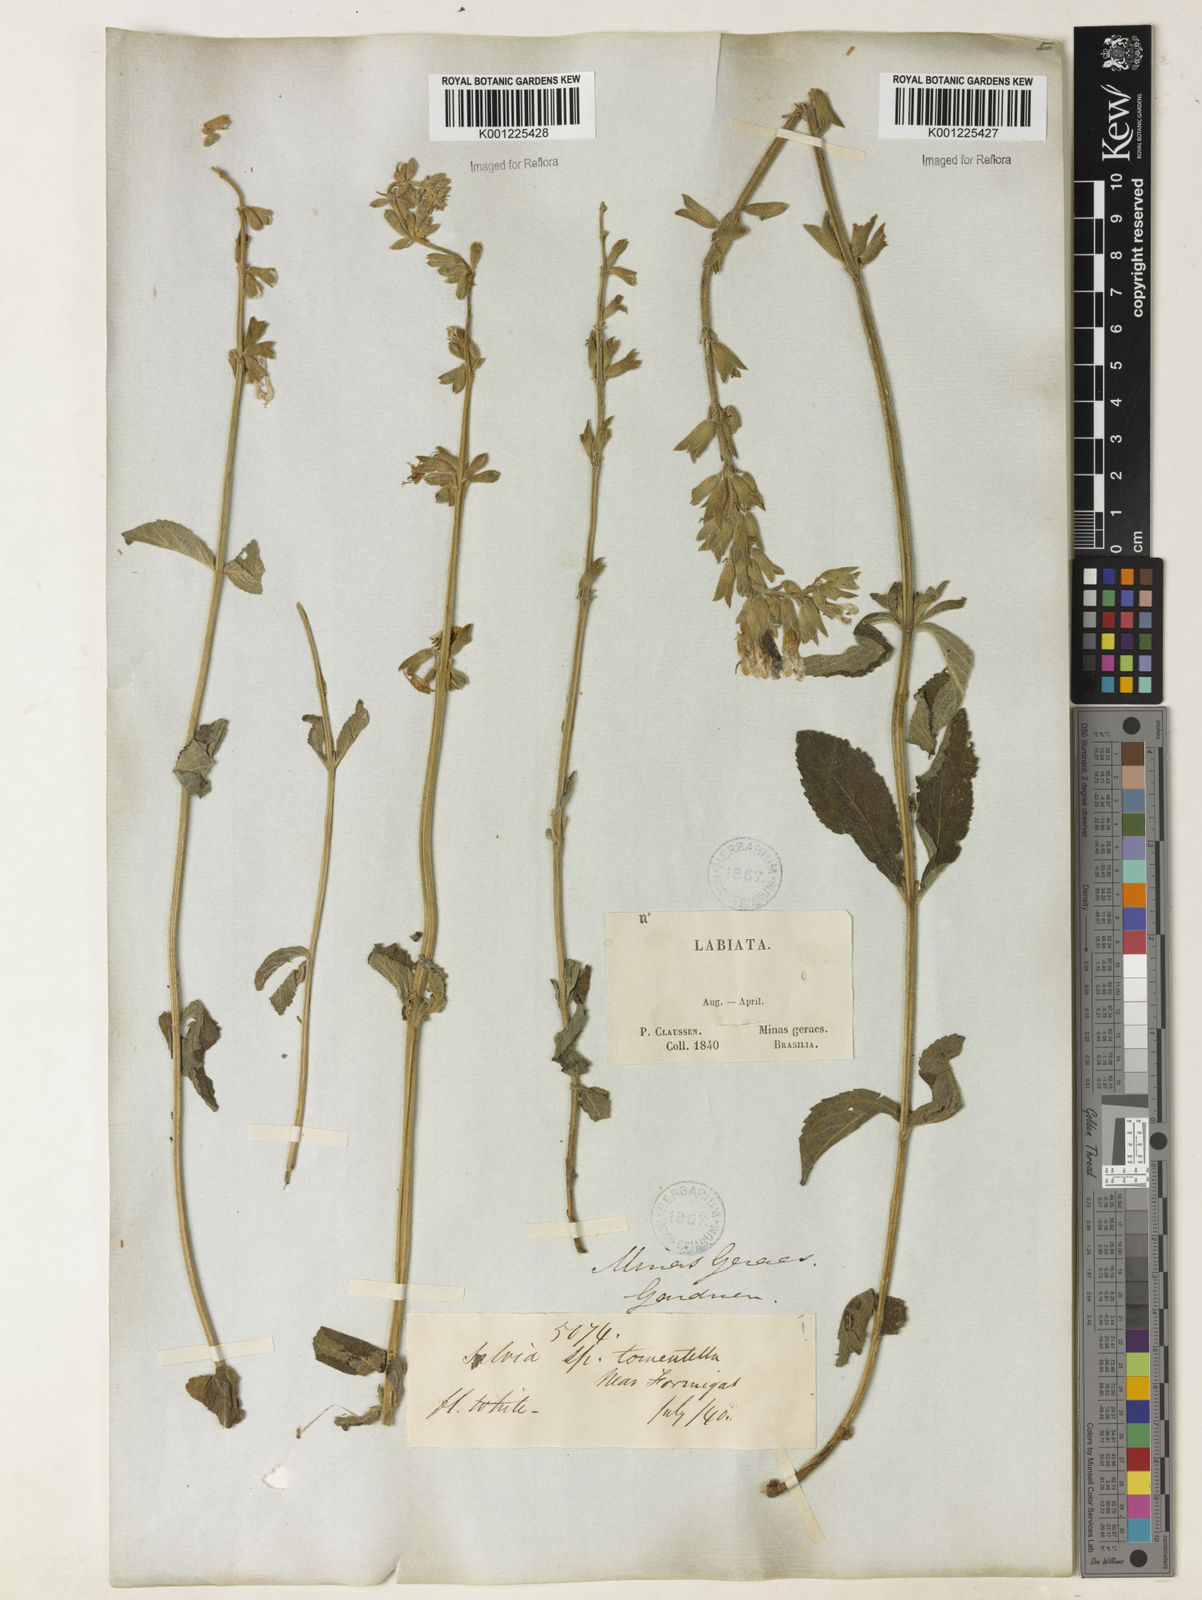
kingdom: Plantae
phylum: Tracheophyta
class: Magnoliopsida
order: Lamiales
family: Lamiaceae
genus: Salvia
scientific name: Salvia tomentella
